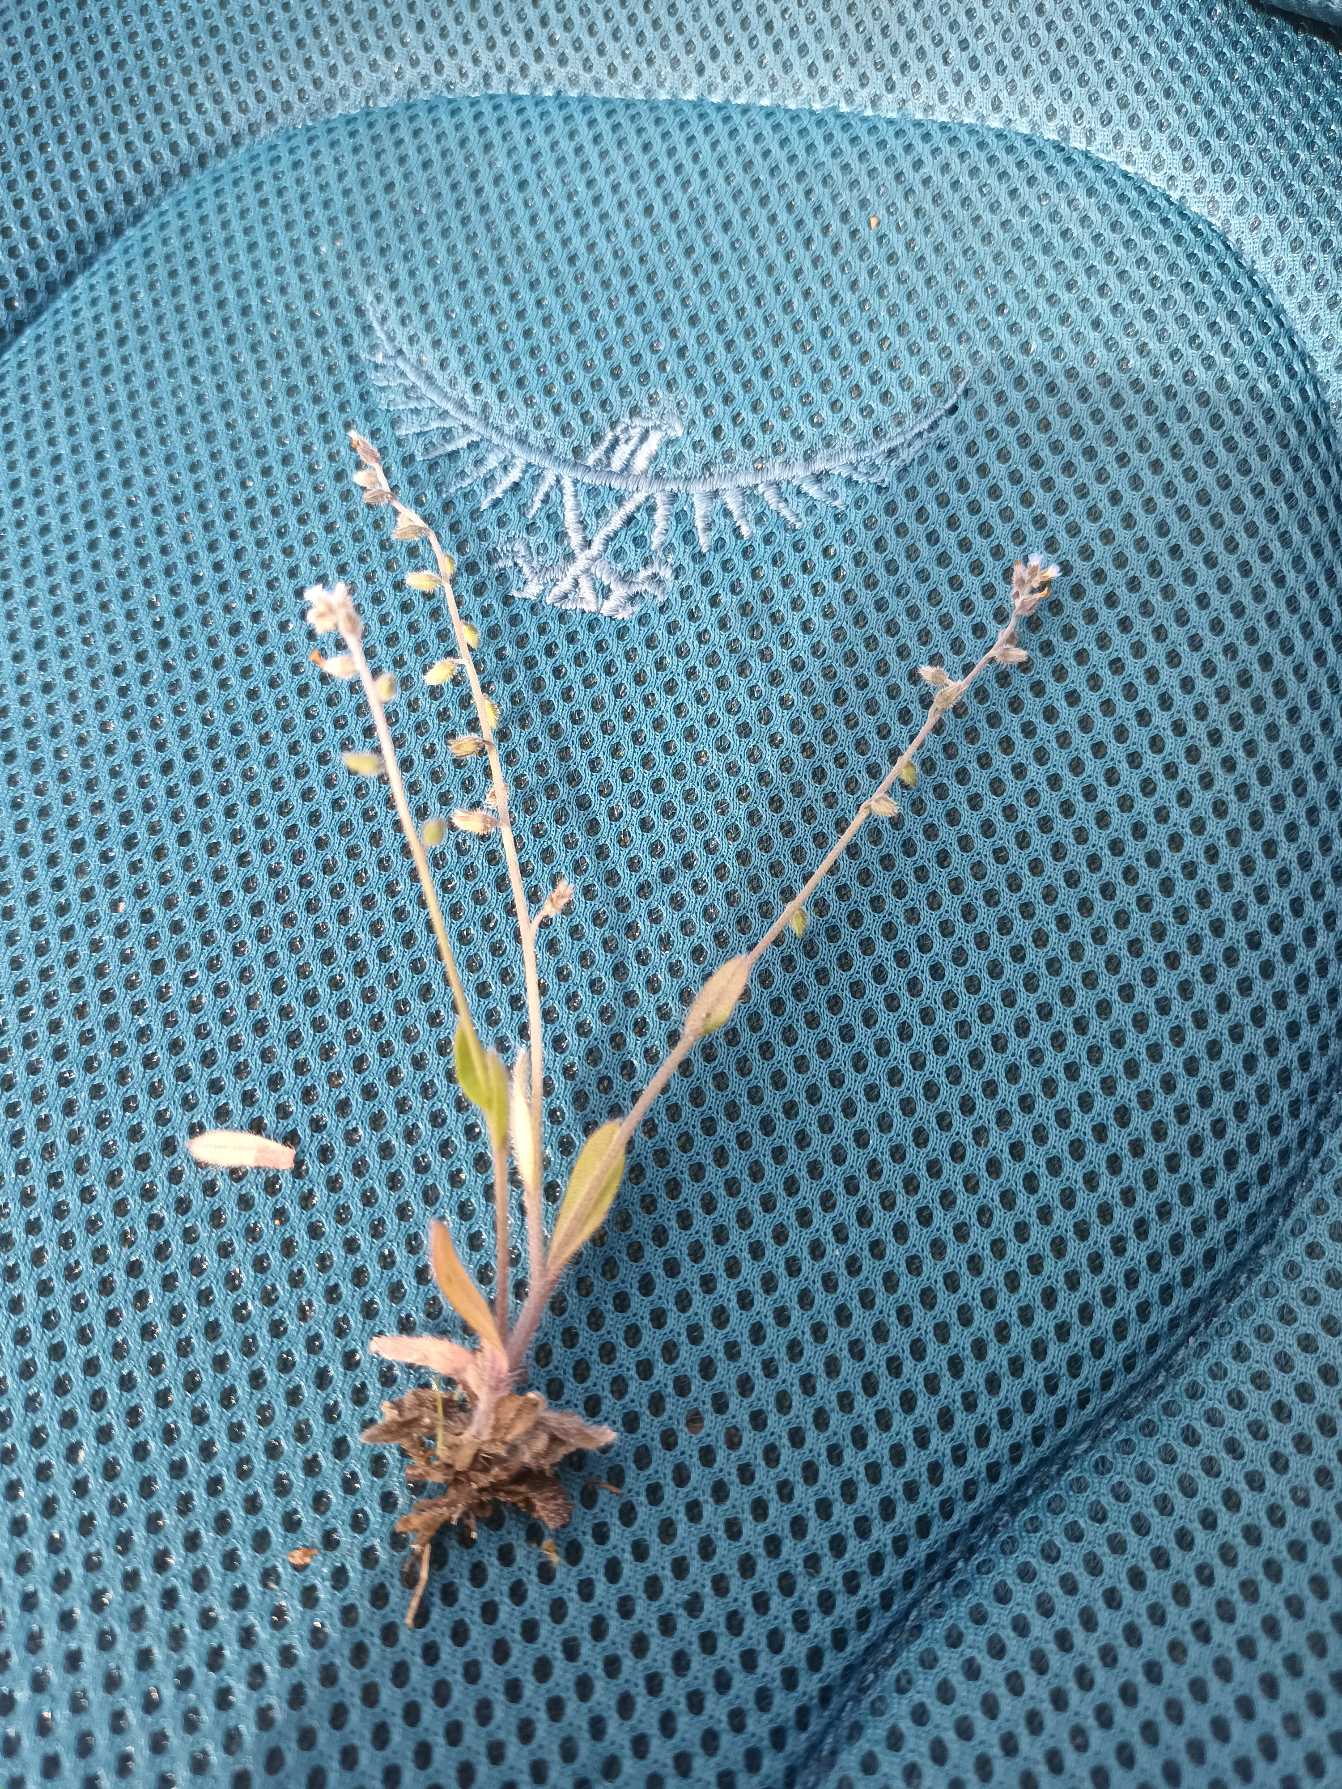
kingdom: Plantae
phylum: Tracheophyta
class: Magnoliopsida
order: Boraginales
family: Boraginaceae
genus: Myosotis
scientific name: Myosotis ramosissima
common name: Bakke-forglemmigej
